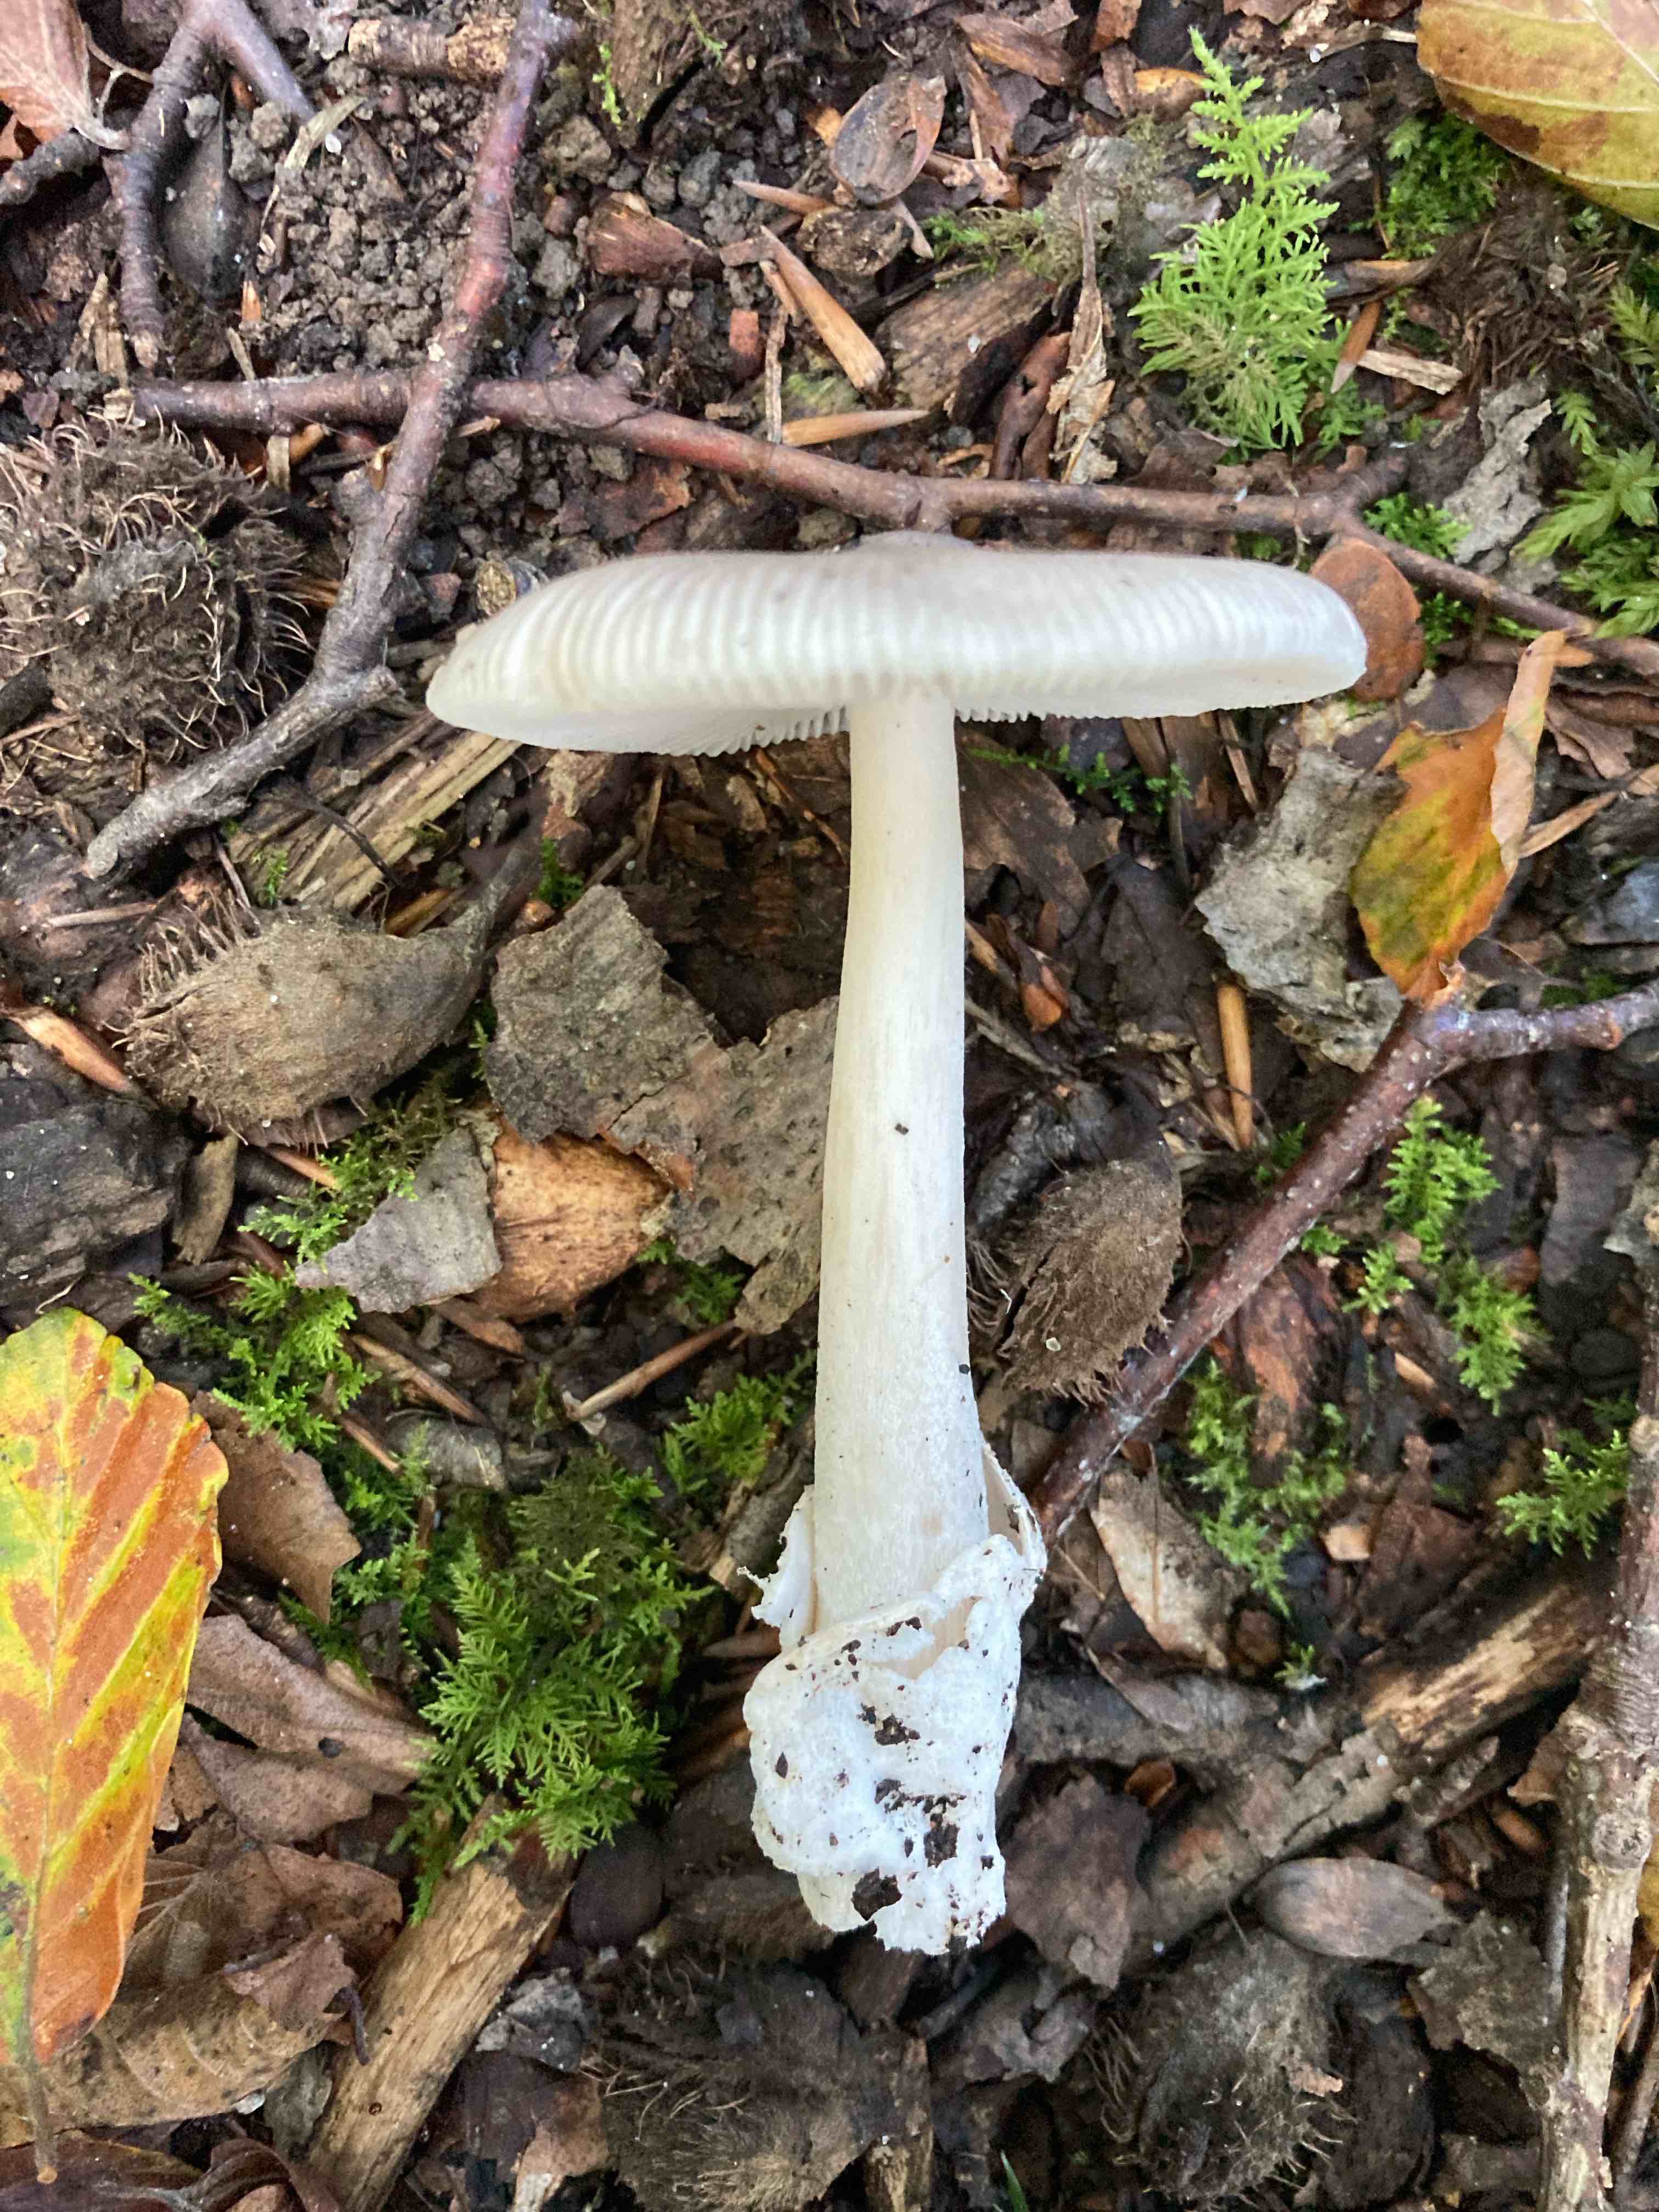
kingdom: Fungi
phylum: Basidiomycota
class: Agaricomycetes
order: Agaricales
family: Amanitaceae
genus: Amanita
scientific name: Amanita vaginata
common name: grå kam-fluesvamp
